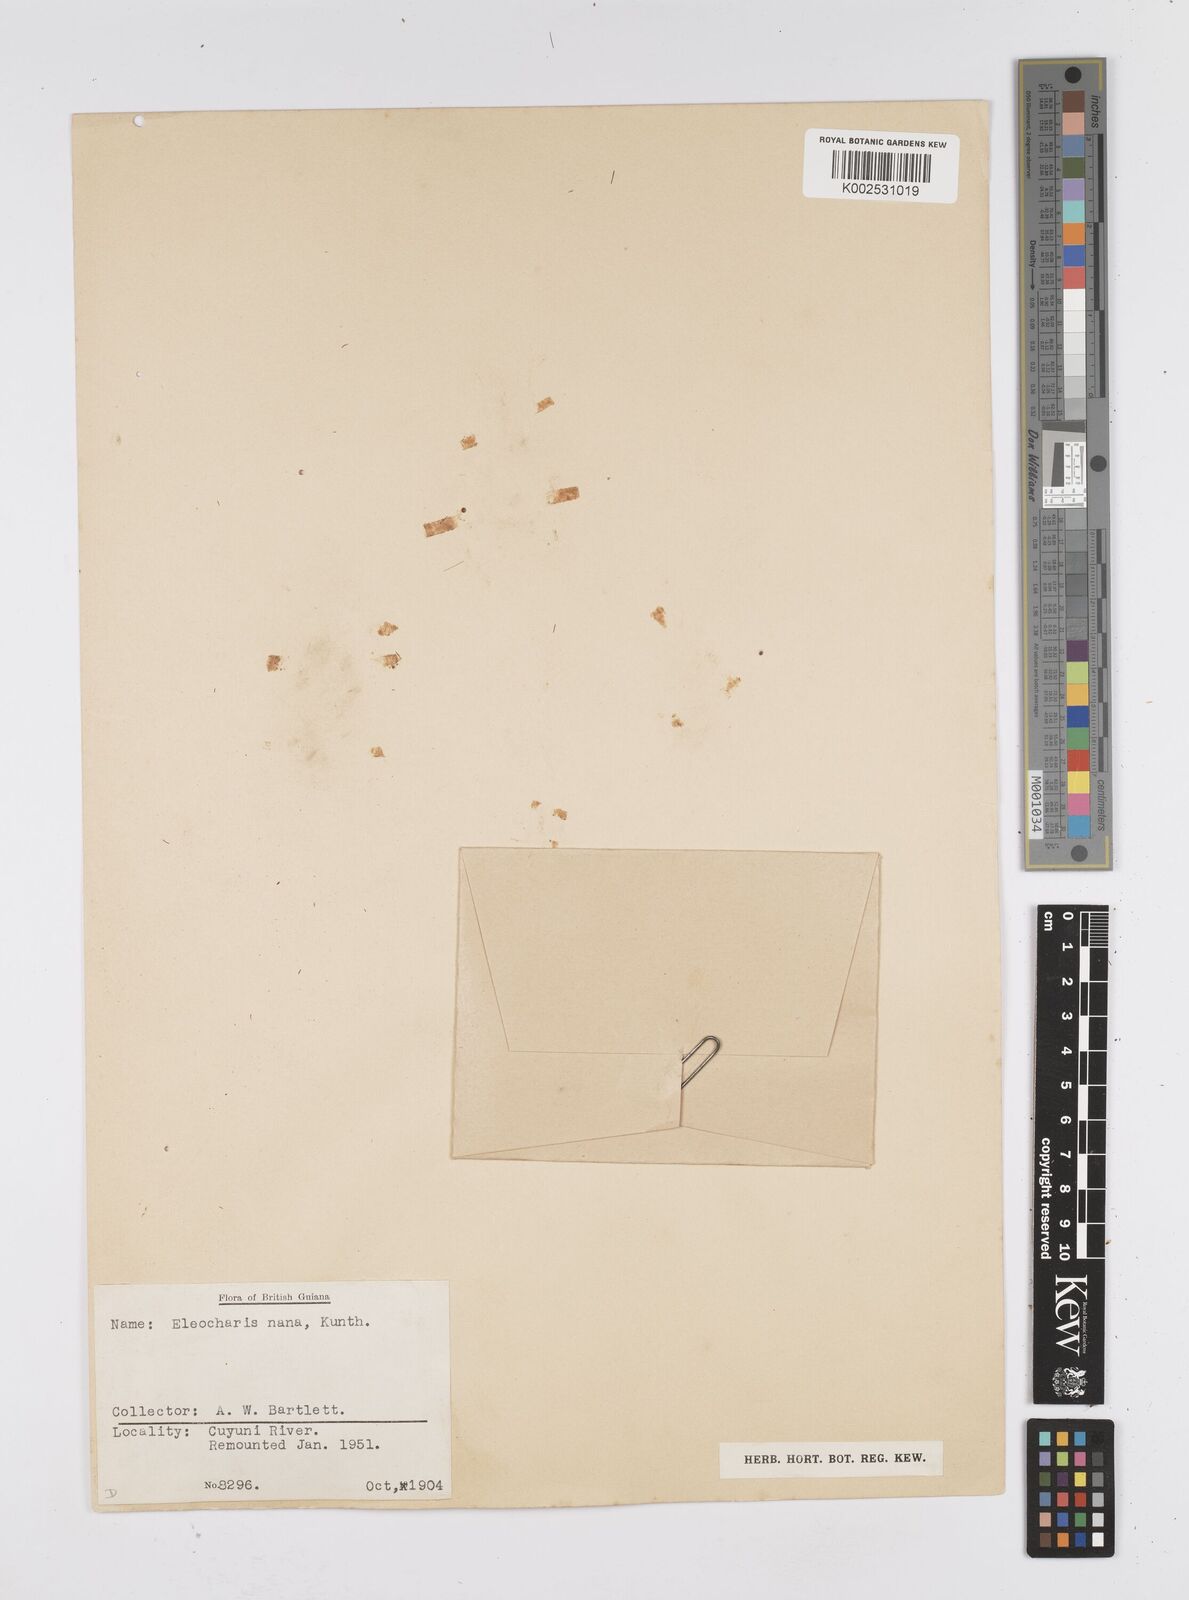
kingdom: Plantae
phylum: Tracheophyta
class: Liliopsida
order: Poales
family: Cyperaceae
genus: Eleocharis
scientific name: Eleocharis nana
